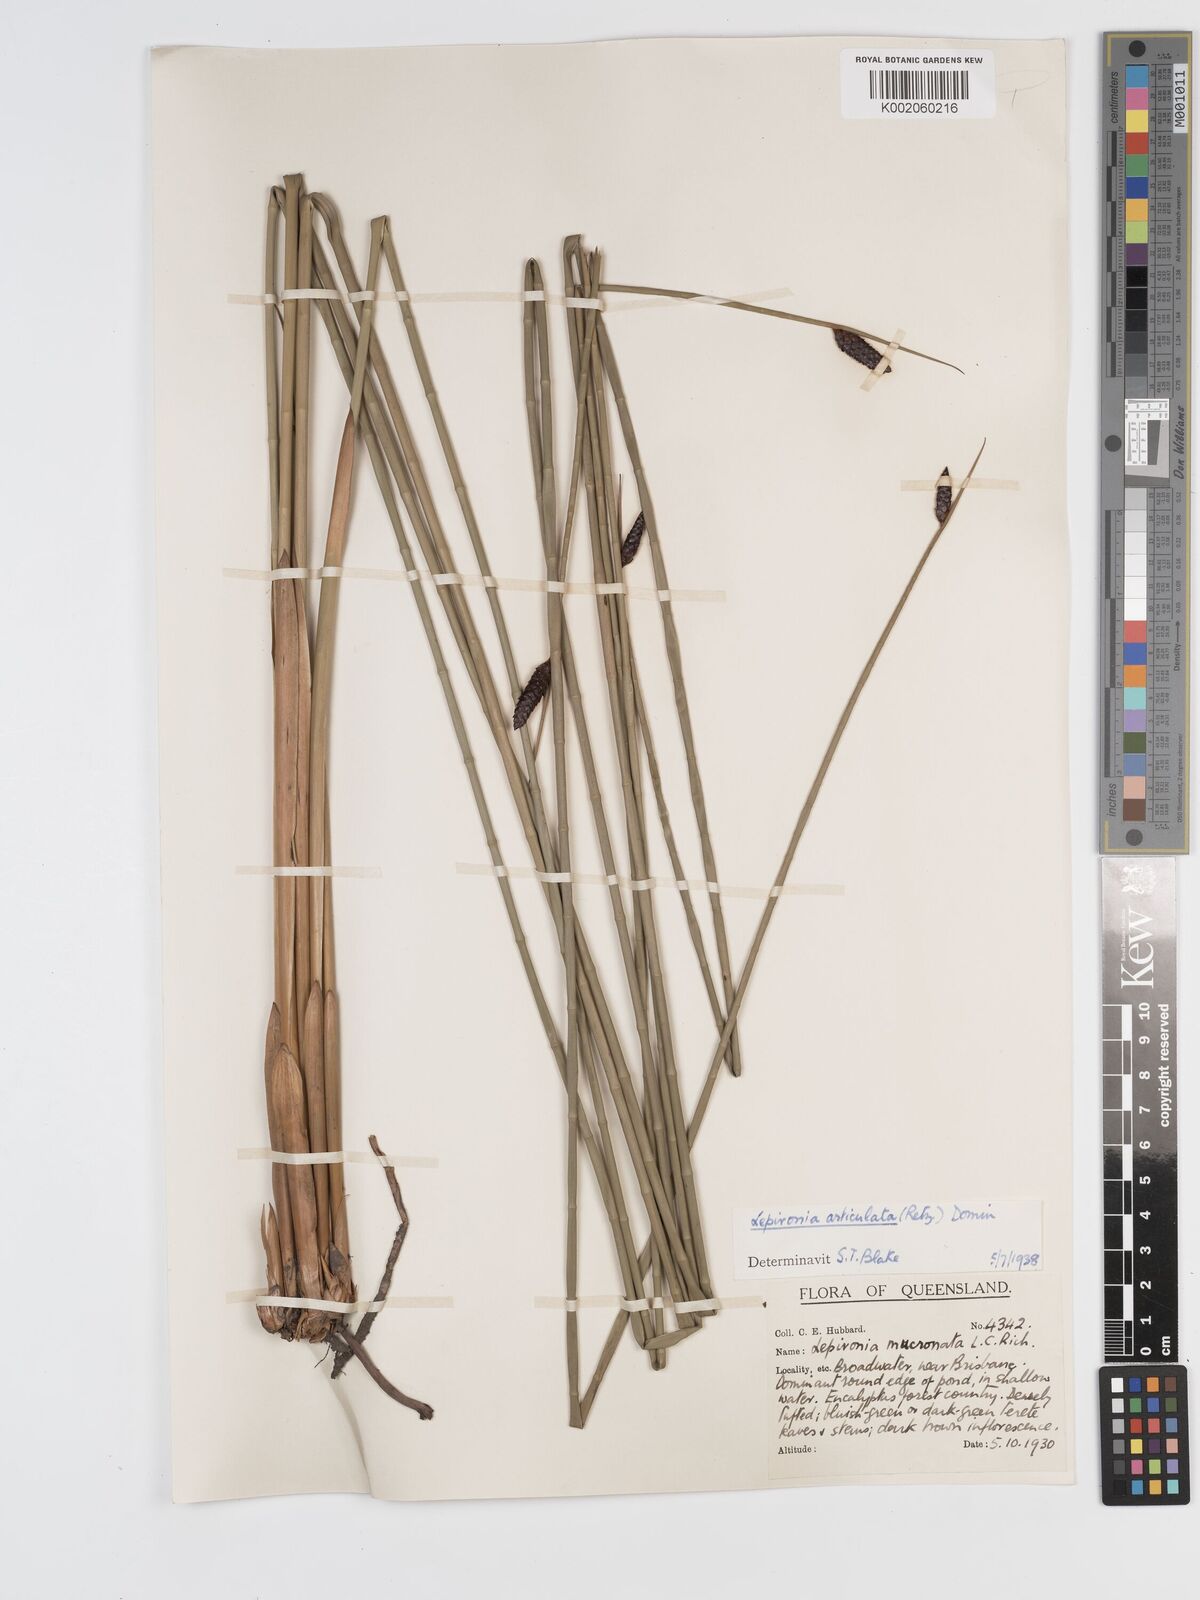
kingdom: Plantae
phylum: Tracheophyta
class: Liliopsida
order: Poales
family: Cyperaceae
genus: Lepironia
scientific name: Lepironia articulata
